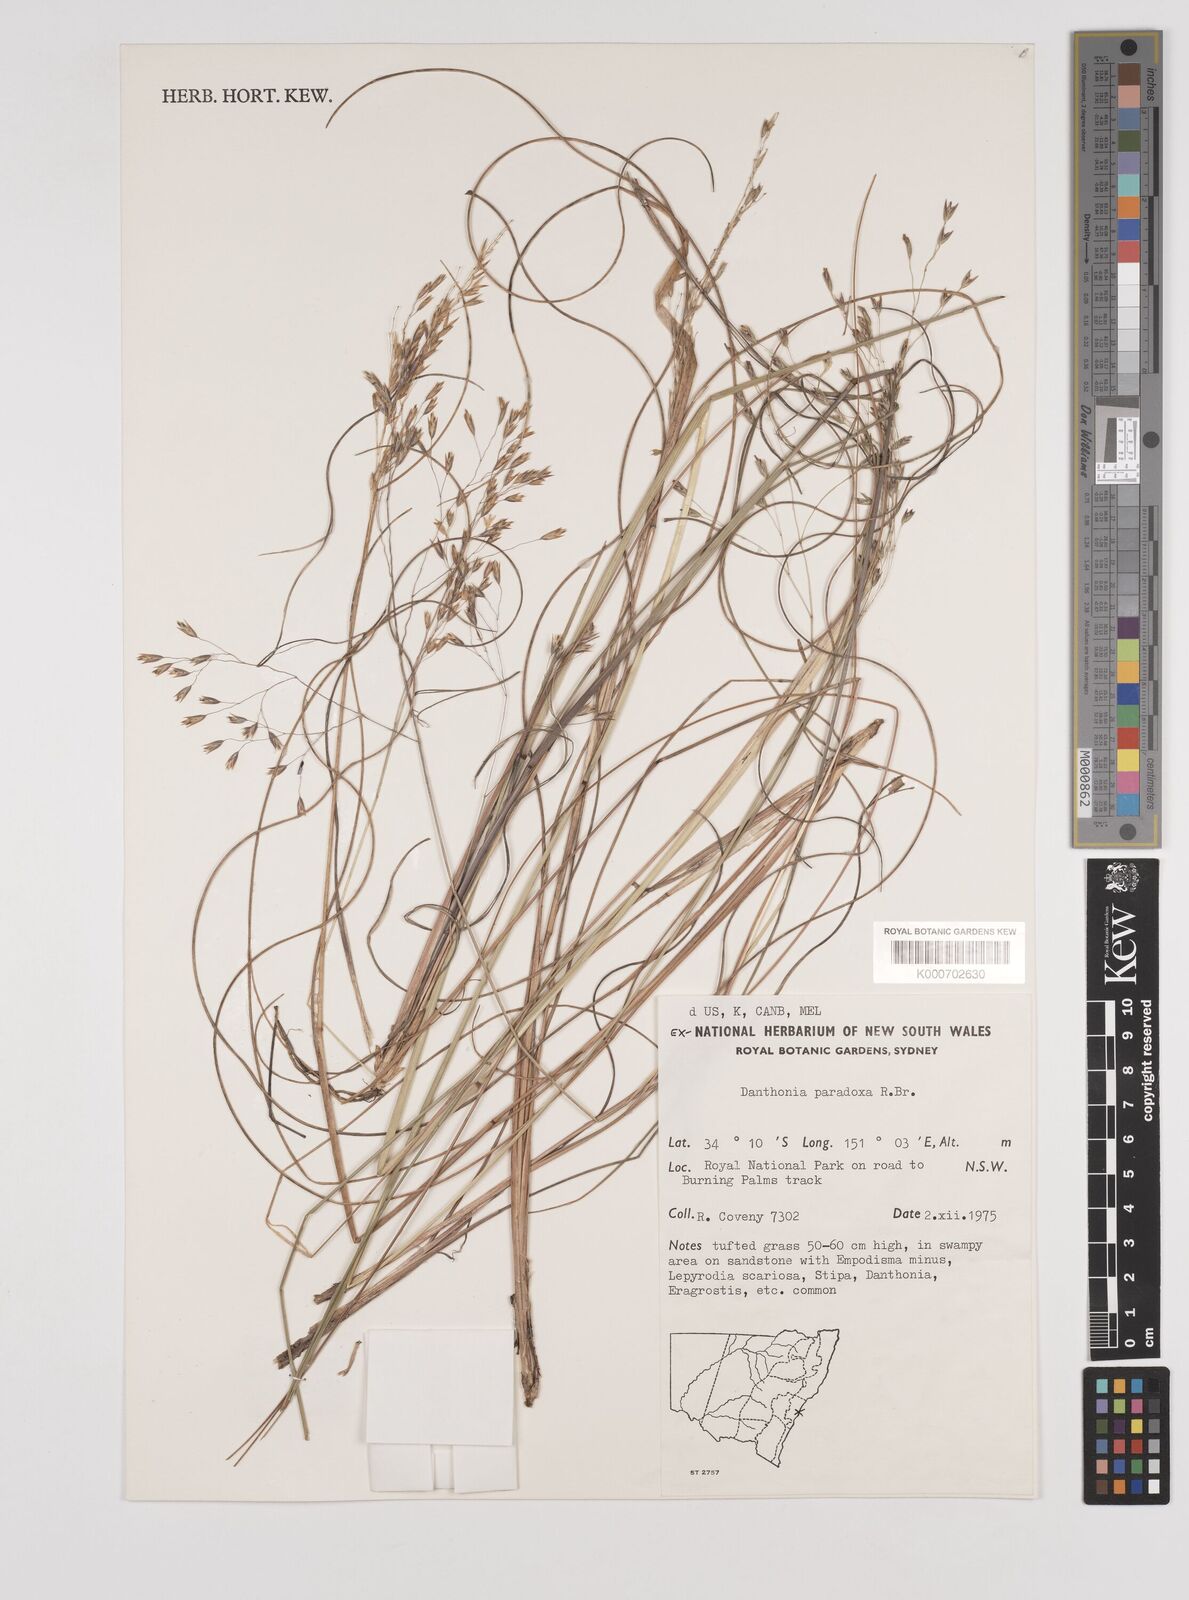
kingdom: Plantae
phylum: Tracheophyta
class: Liliopsida
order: Poales
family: Poaceae
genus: Plinthanthesis
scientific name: Plinthanthesis paradoxa
